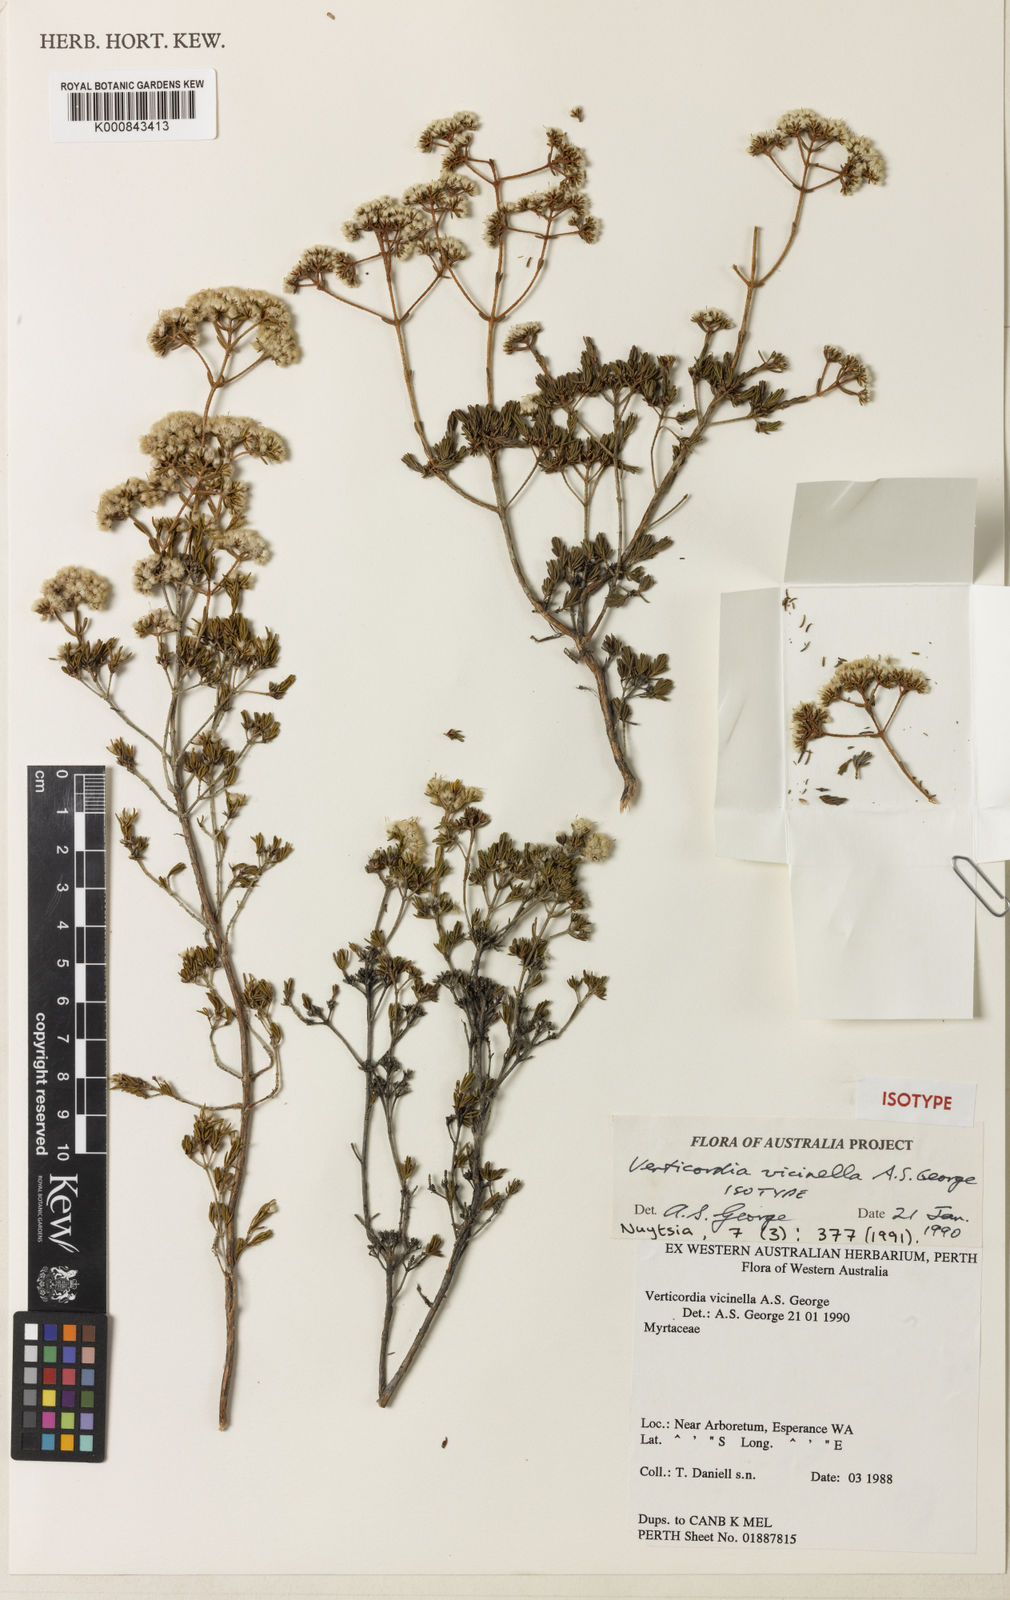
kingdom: Plantae
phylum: Tracheophyta
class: Magnoliopsida
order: Myrtales
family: Myrtaceae
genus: Verticordia
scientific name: Verticordia vicinella
